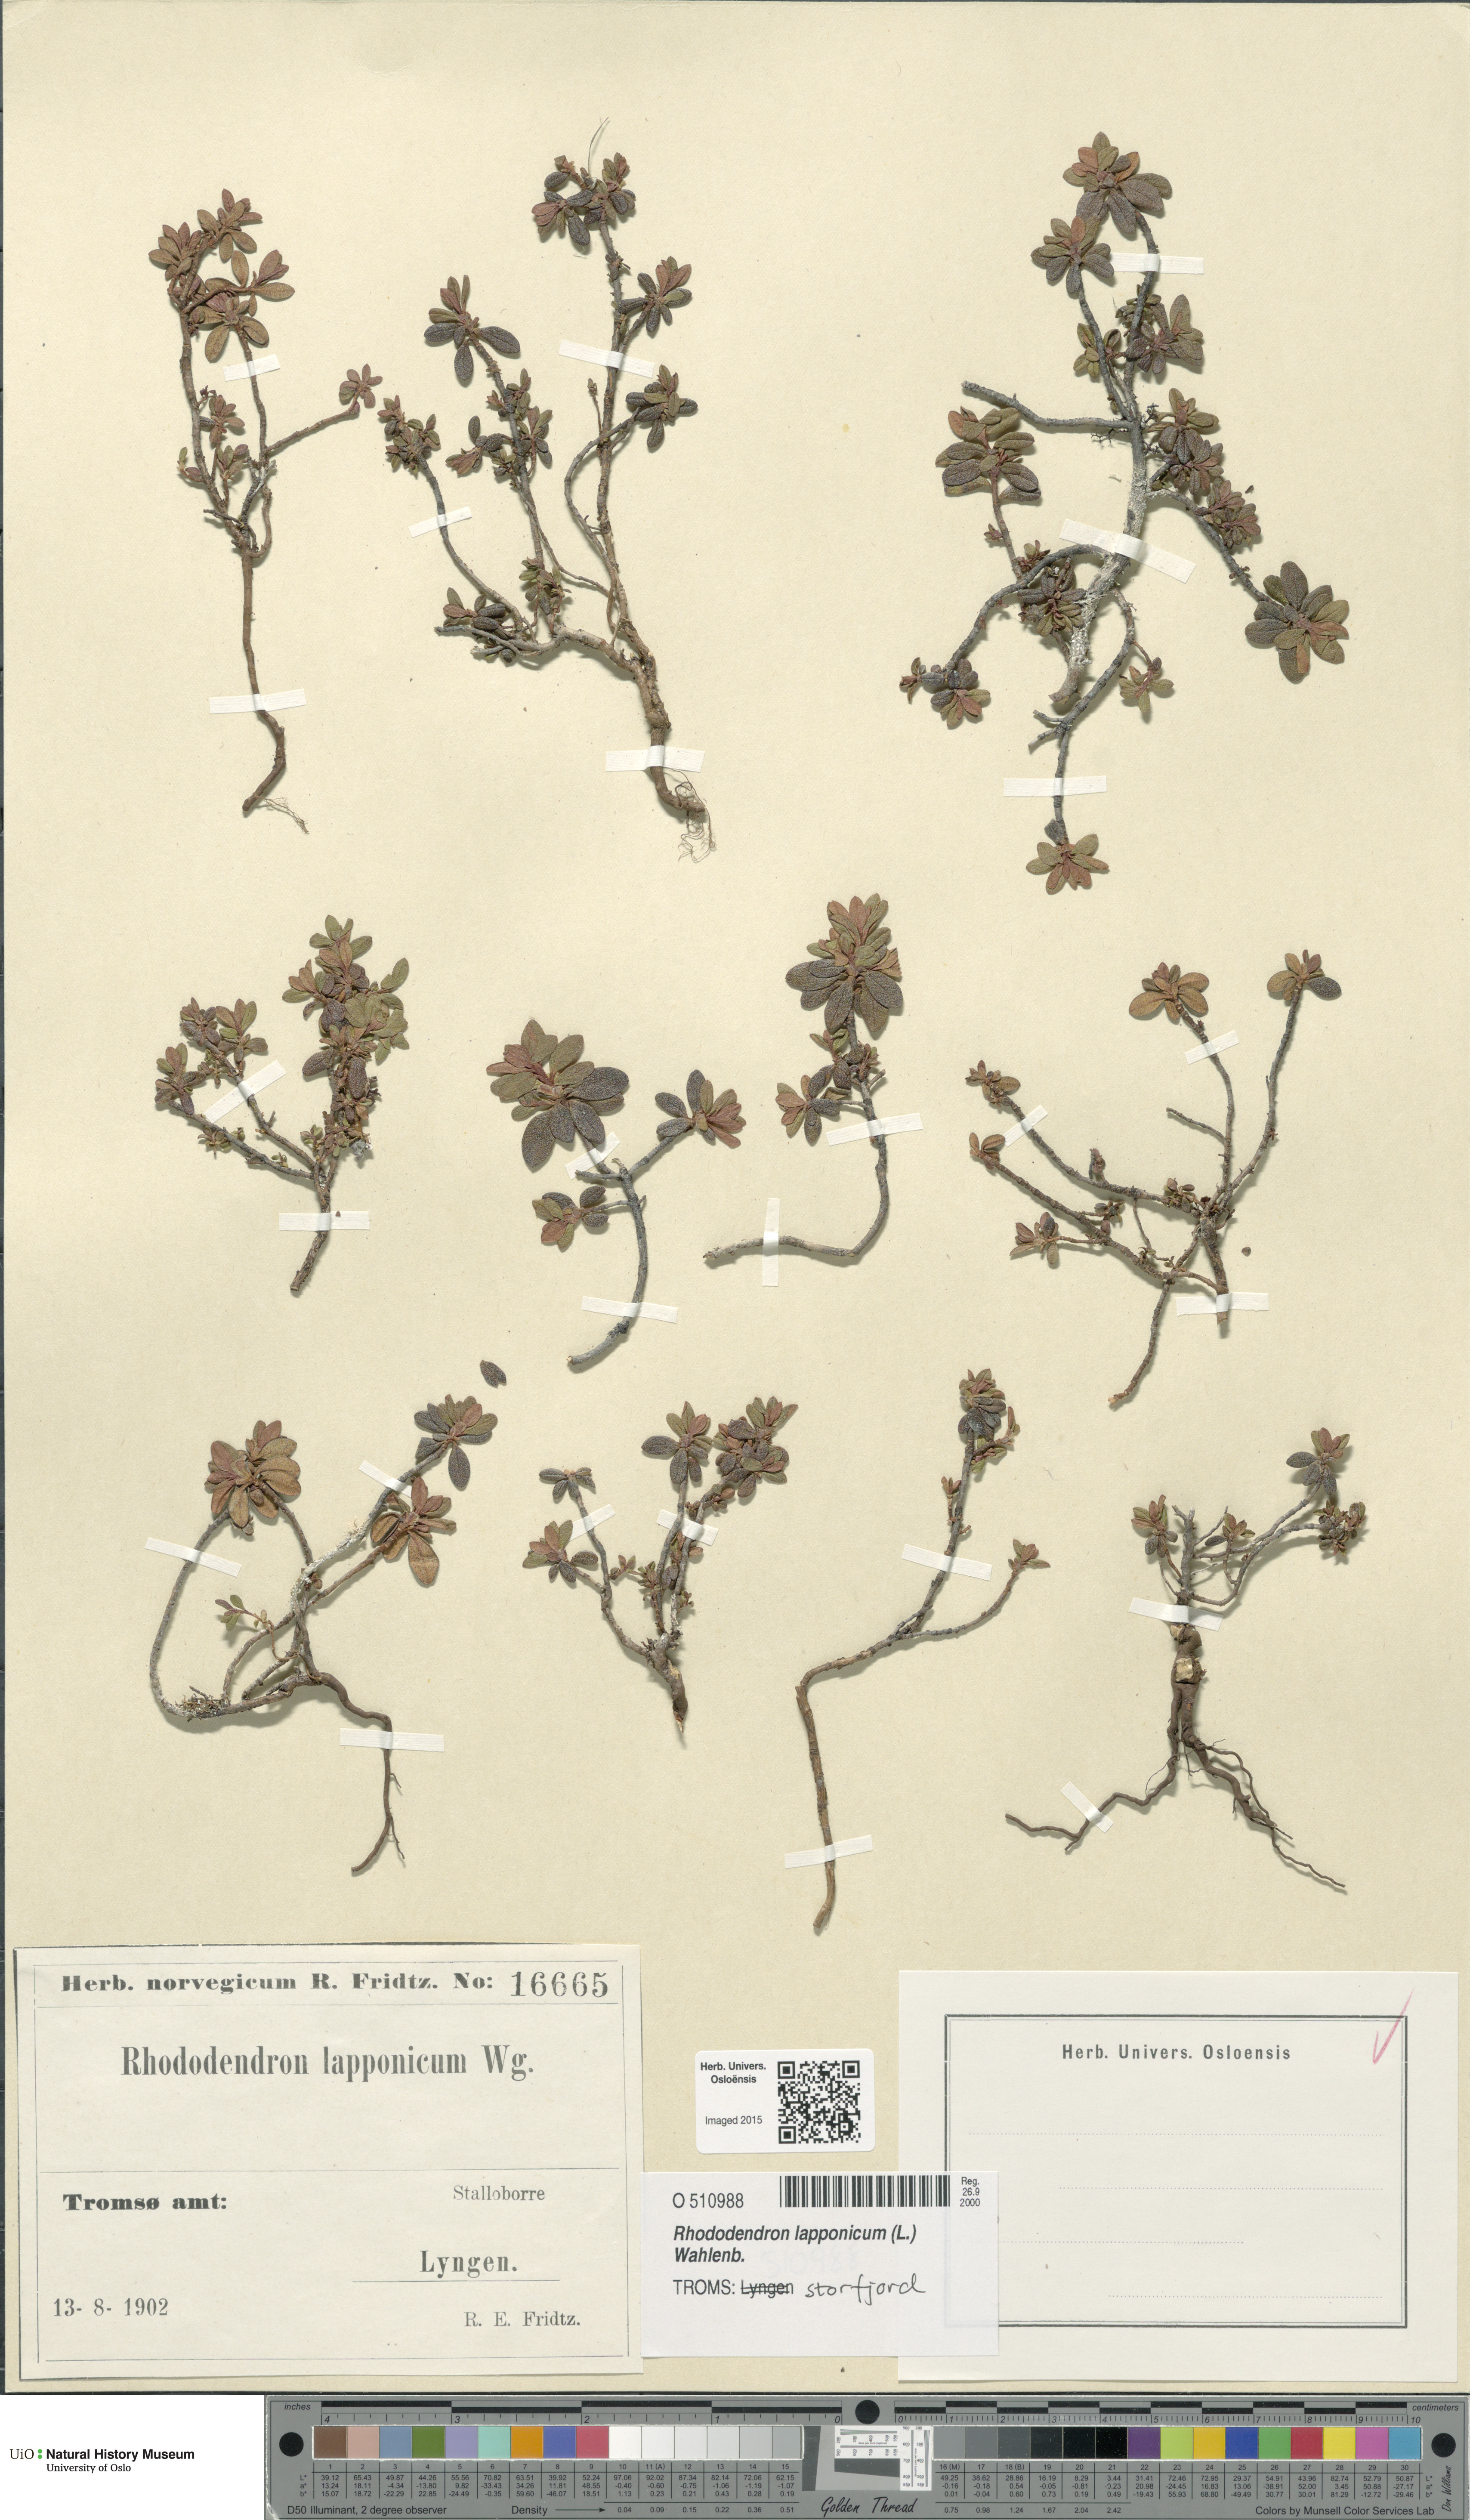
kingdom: Plantae
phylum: Tracheophyta
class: Magnoliopsida
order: Ericales
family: Ericaceae
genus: Rhododendron
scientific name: Rhododendron lapponicum
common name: Lapland rhododendron
